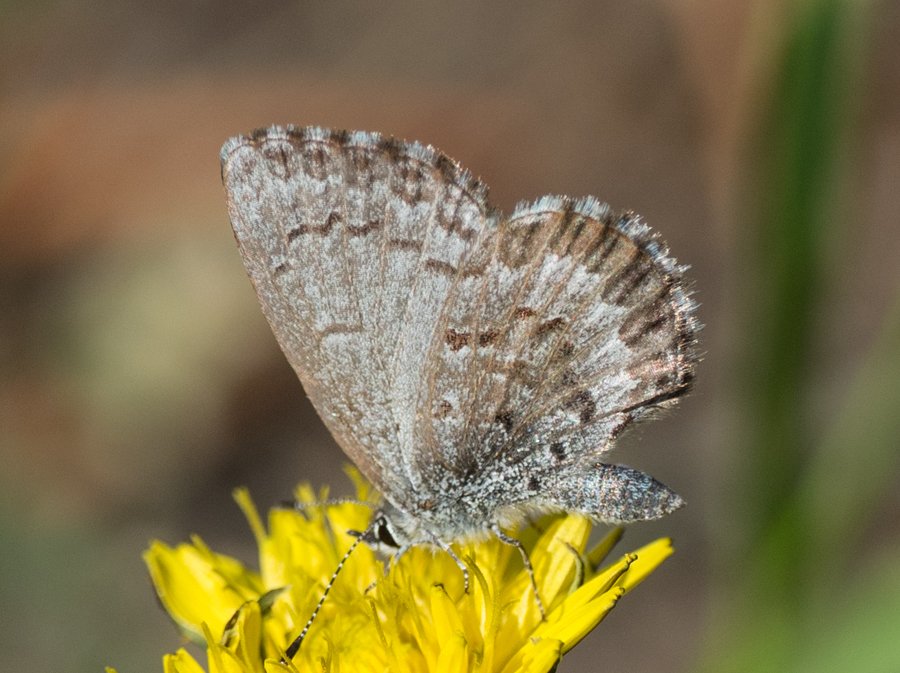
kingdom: Animalia
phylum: Arthropoda
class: Insecta
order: Lepidoptera
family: Lycaenidae
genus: Celastrina
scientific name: Celastrina lucia
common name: Northern Spring Azure
